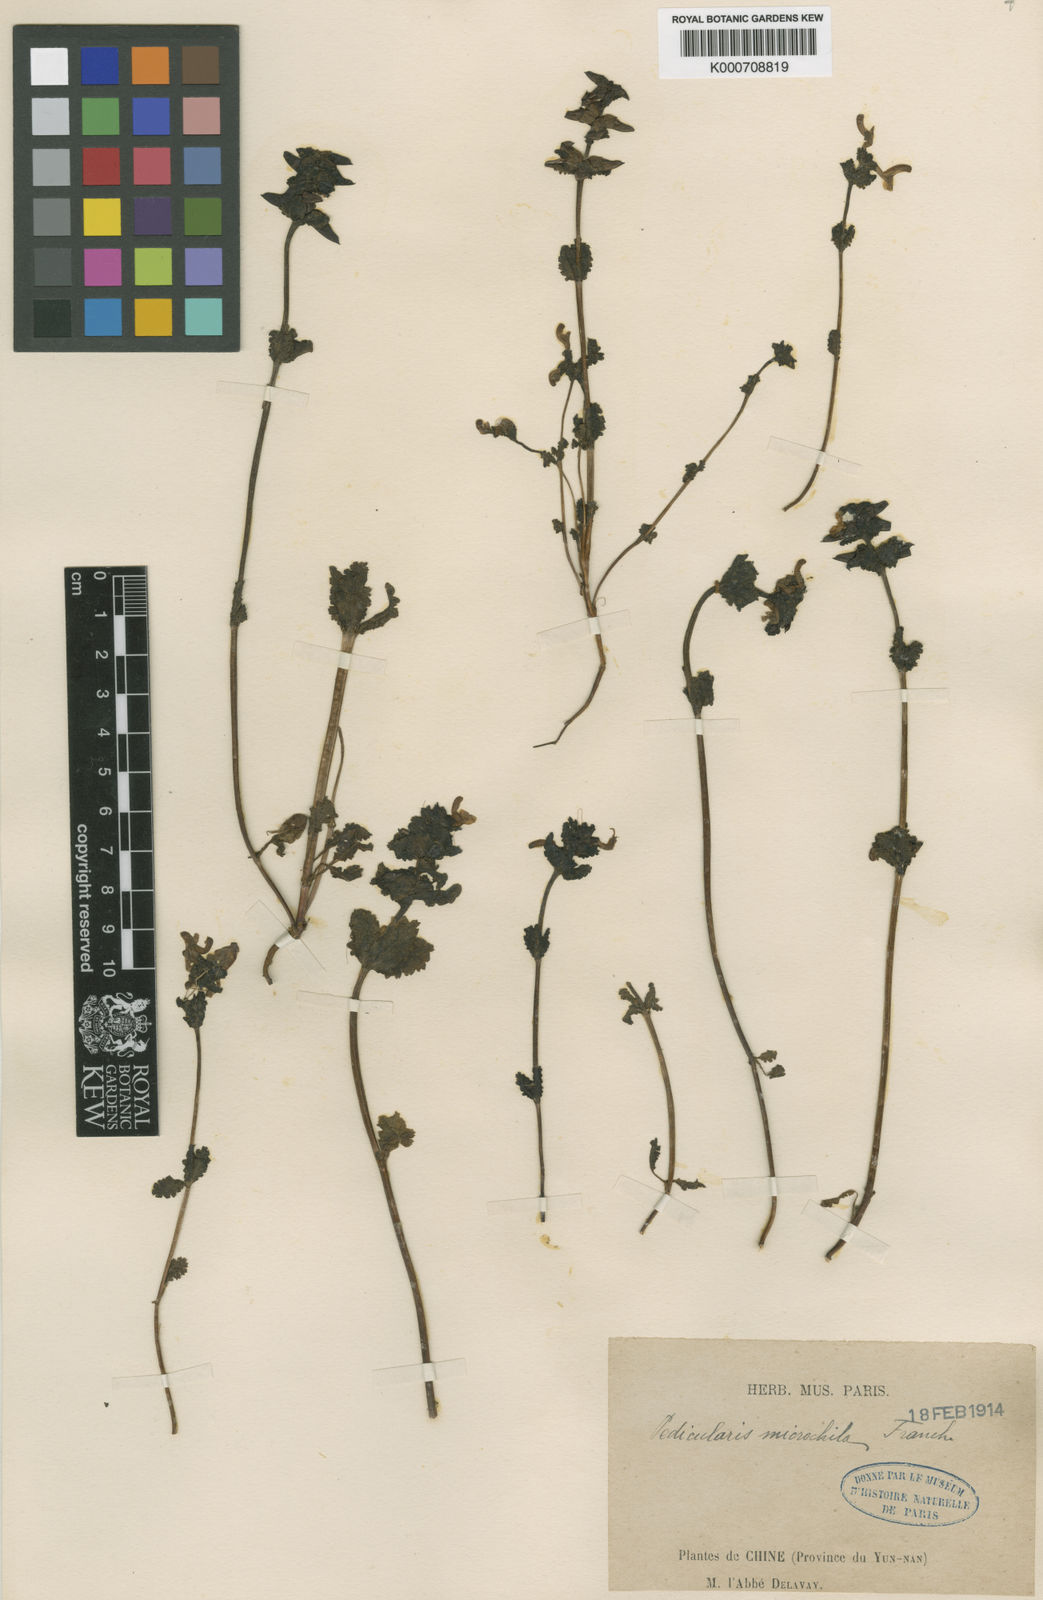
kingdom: Plantae
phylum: Tracheophyta
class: Magnoliopsida
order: Lamiales
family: Orobanchaceae
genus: Pedicularis
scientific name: Pedicularis microchila
